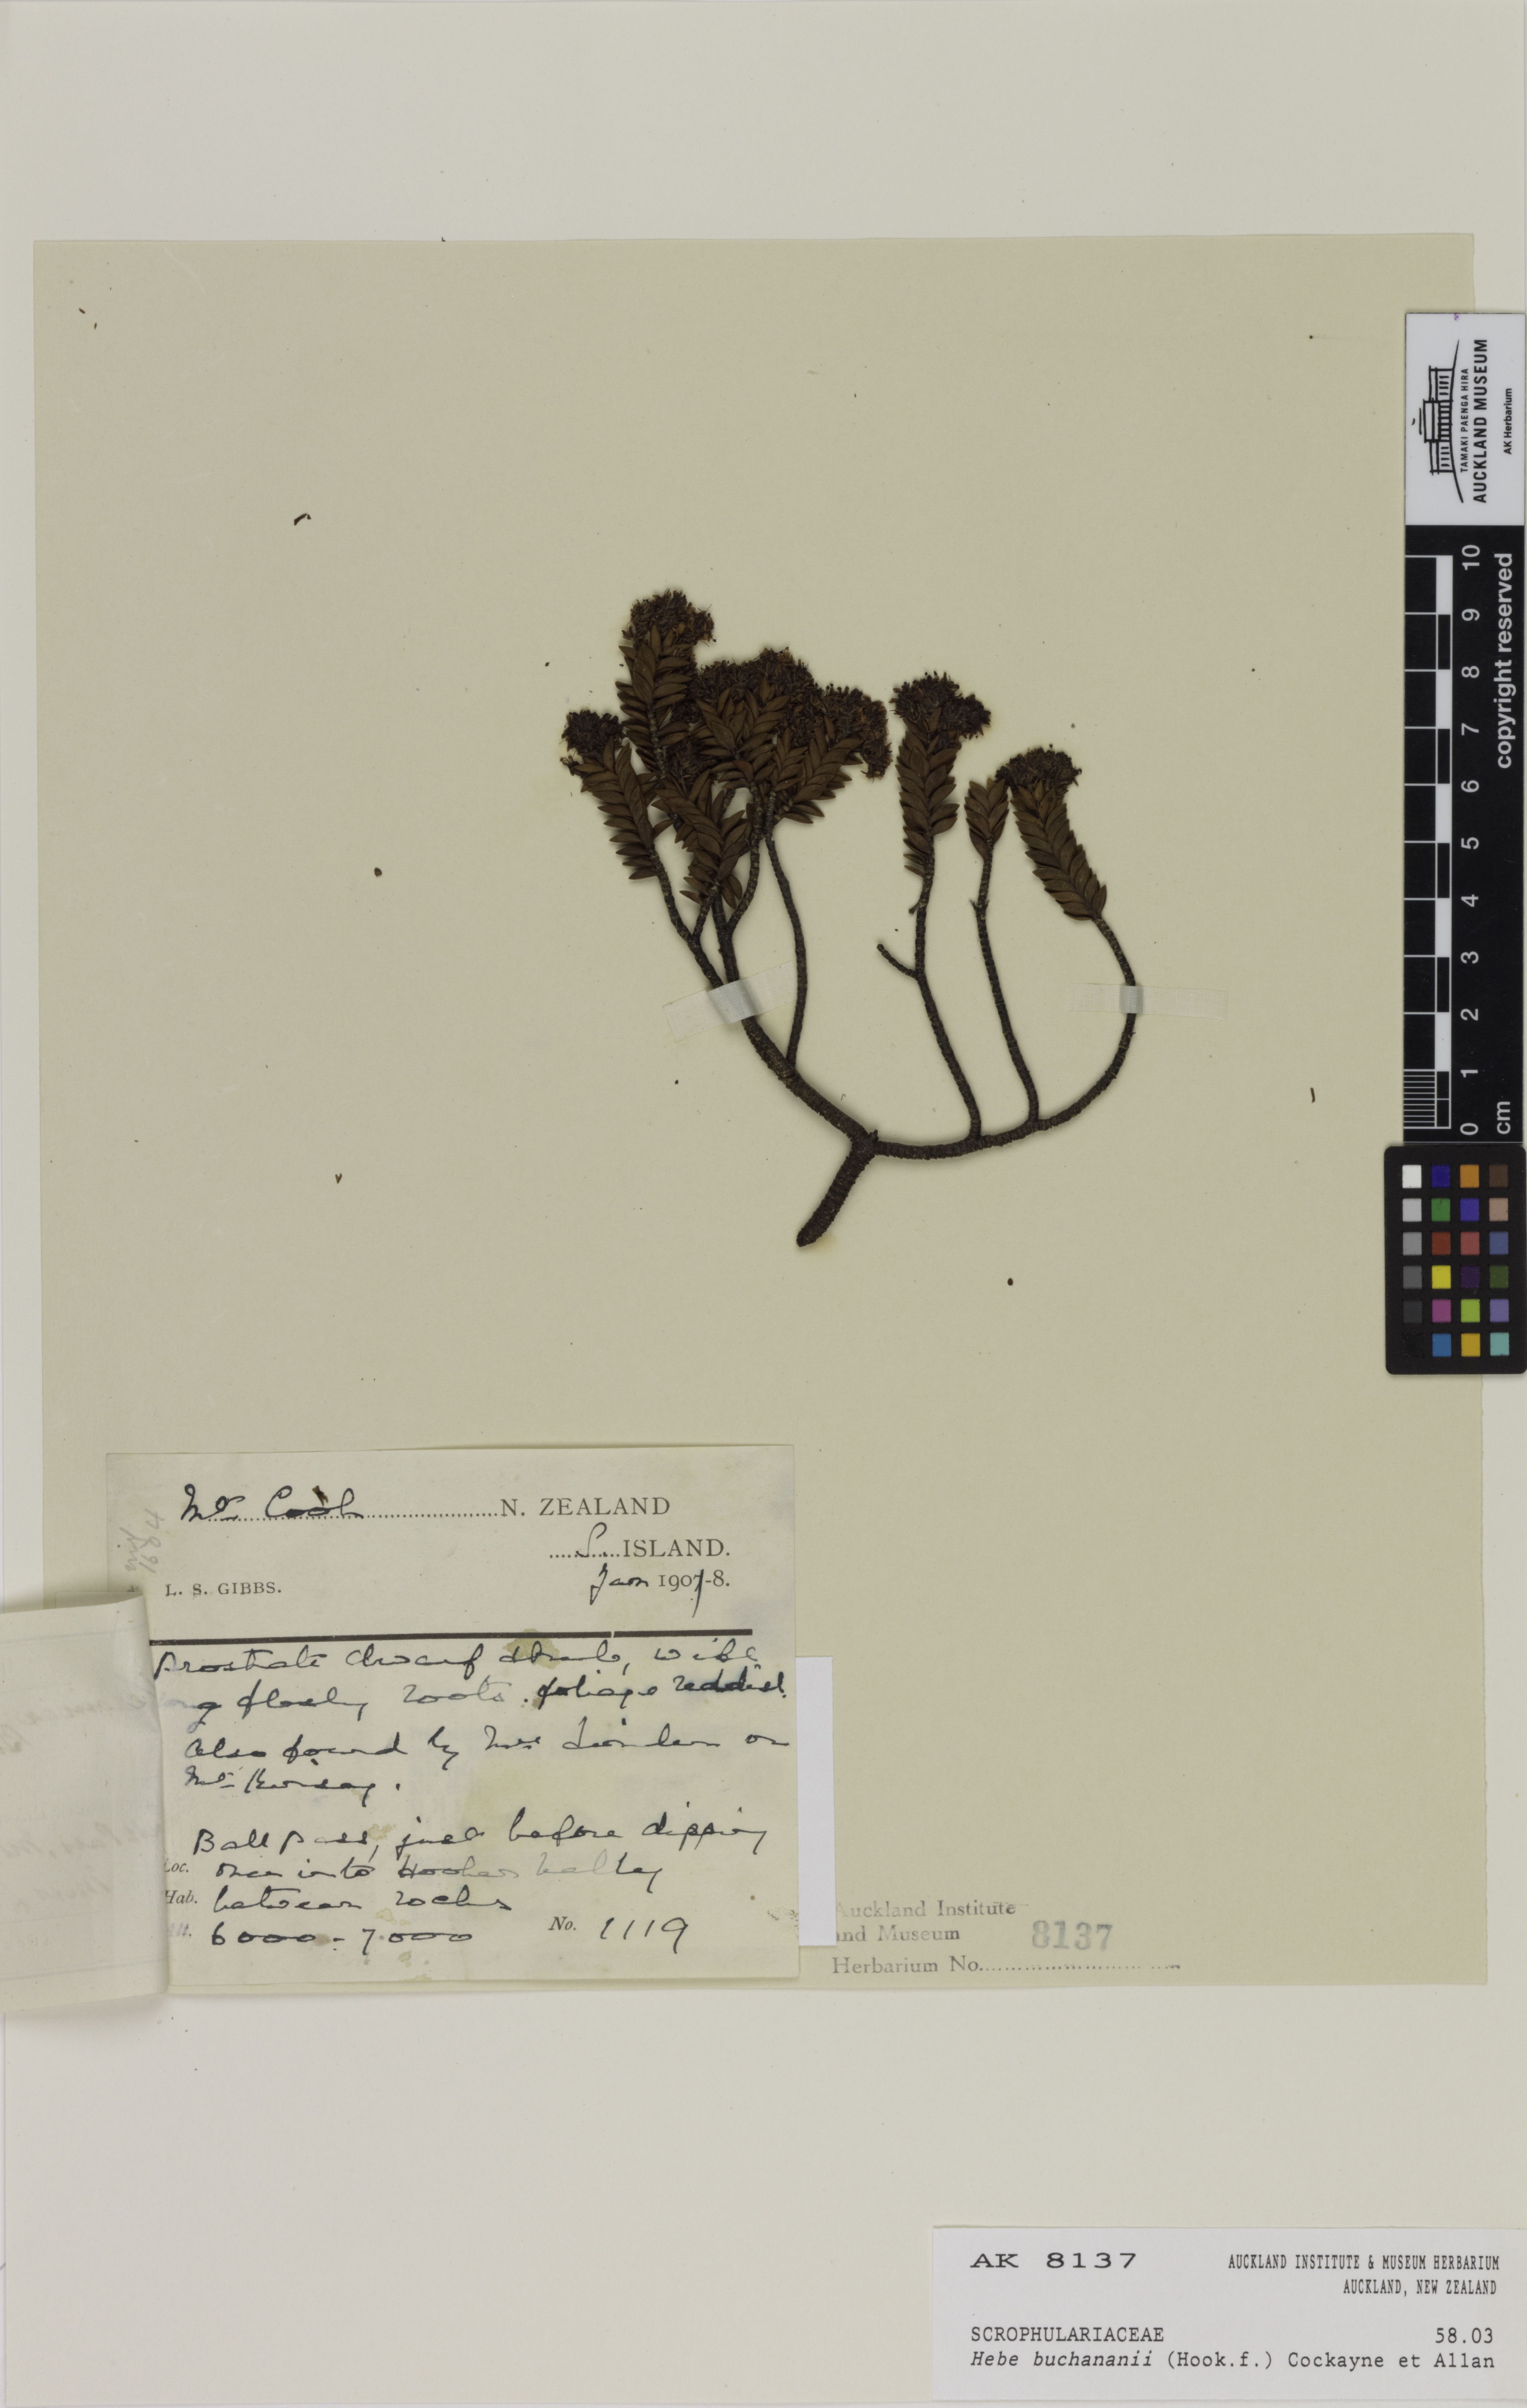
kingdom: Plantae
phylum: Tracheophyta
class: Magnoliopsida
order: Lamiales
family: Plantaginaceae
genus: Veronica
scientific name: Veronica buchananii
